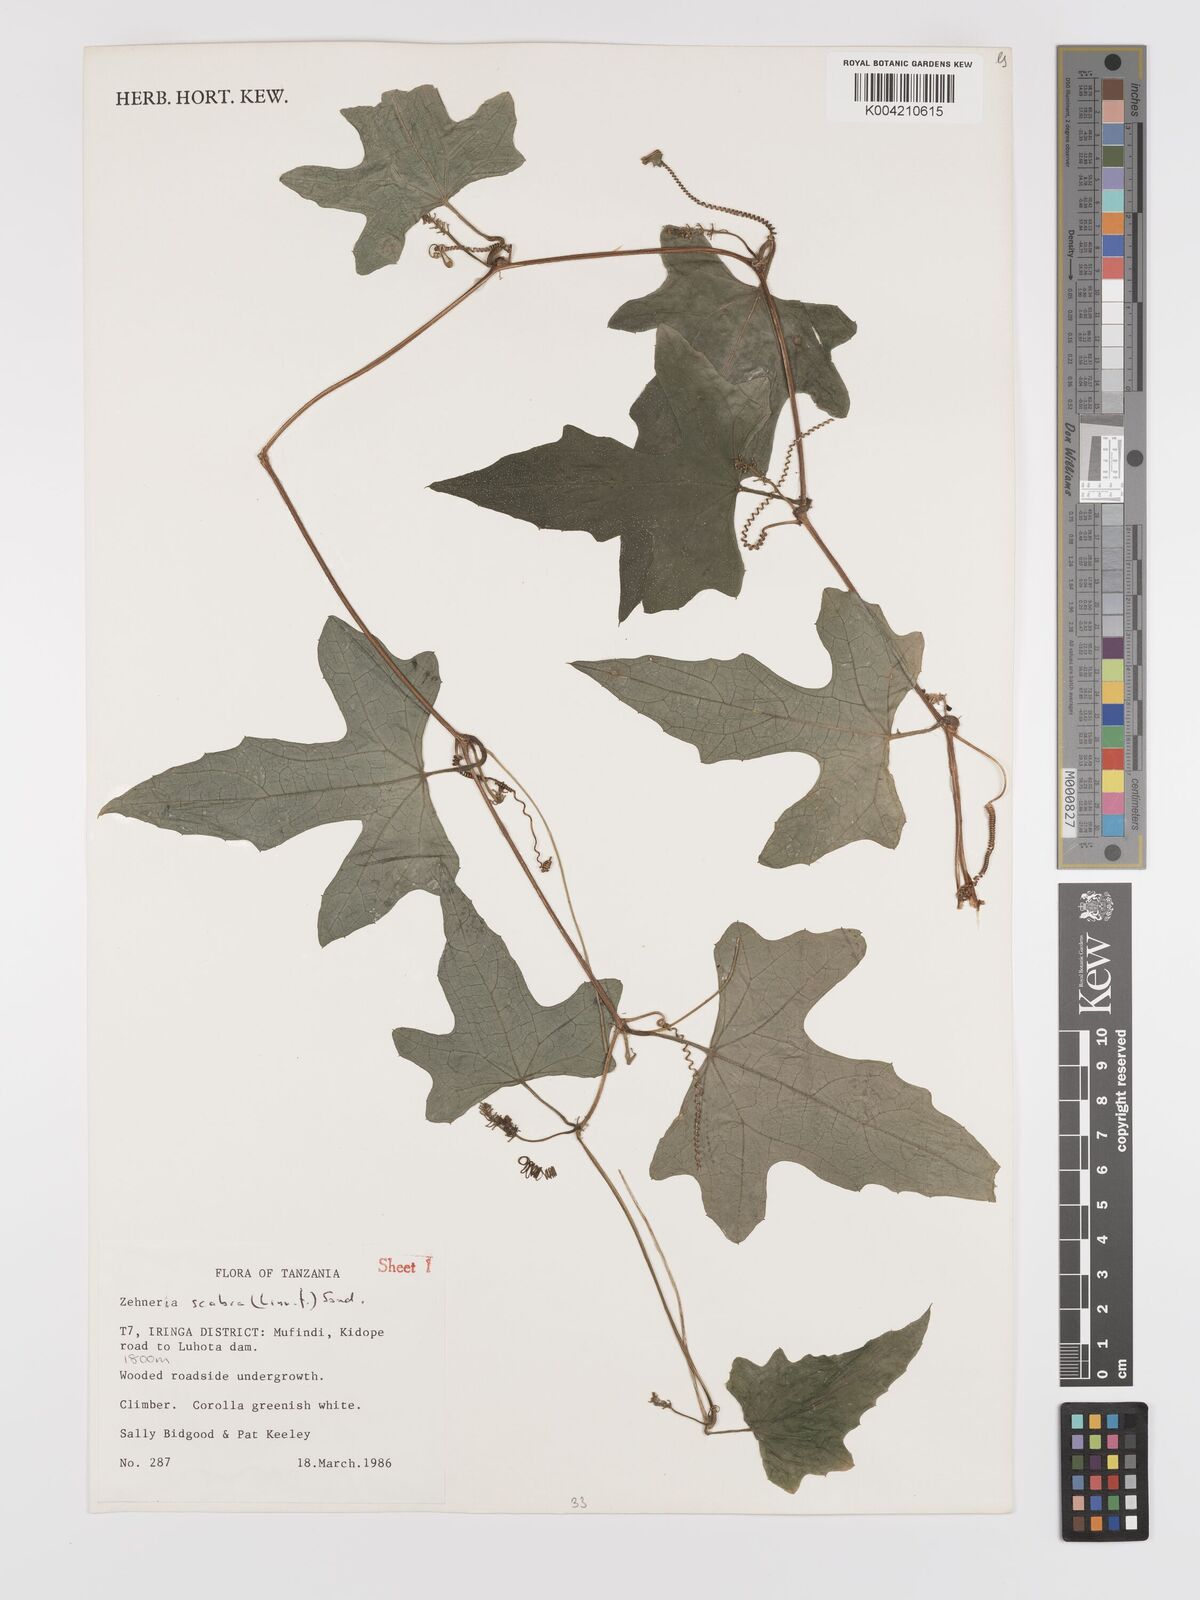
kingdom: Plantae
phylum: Tracheophyta
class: Magnoliopsida
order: Cucurbitales
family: Cucurbitaceae
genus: Zehneria
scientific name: Zehneria oligosperma
